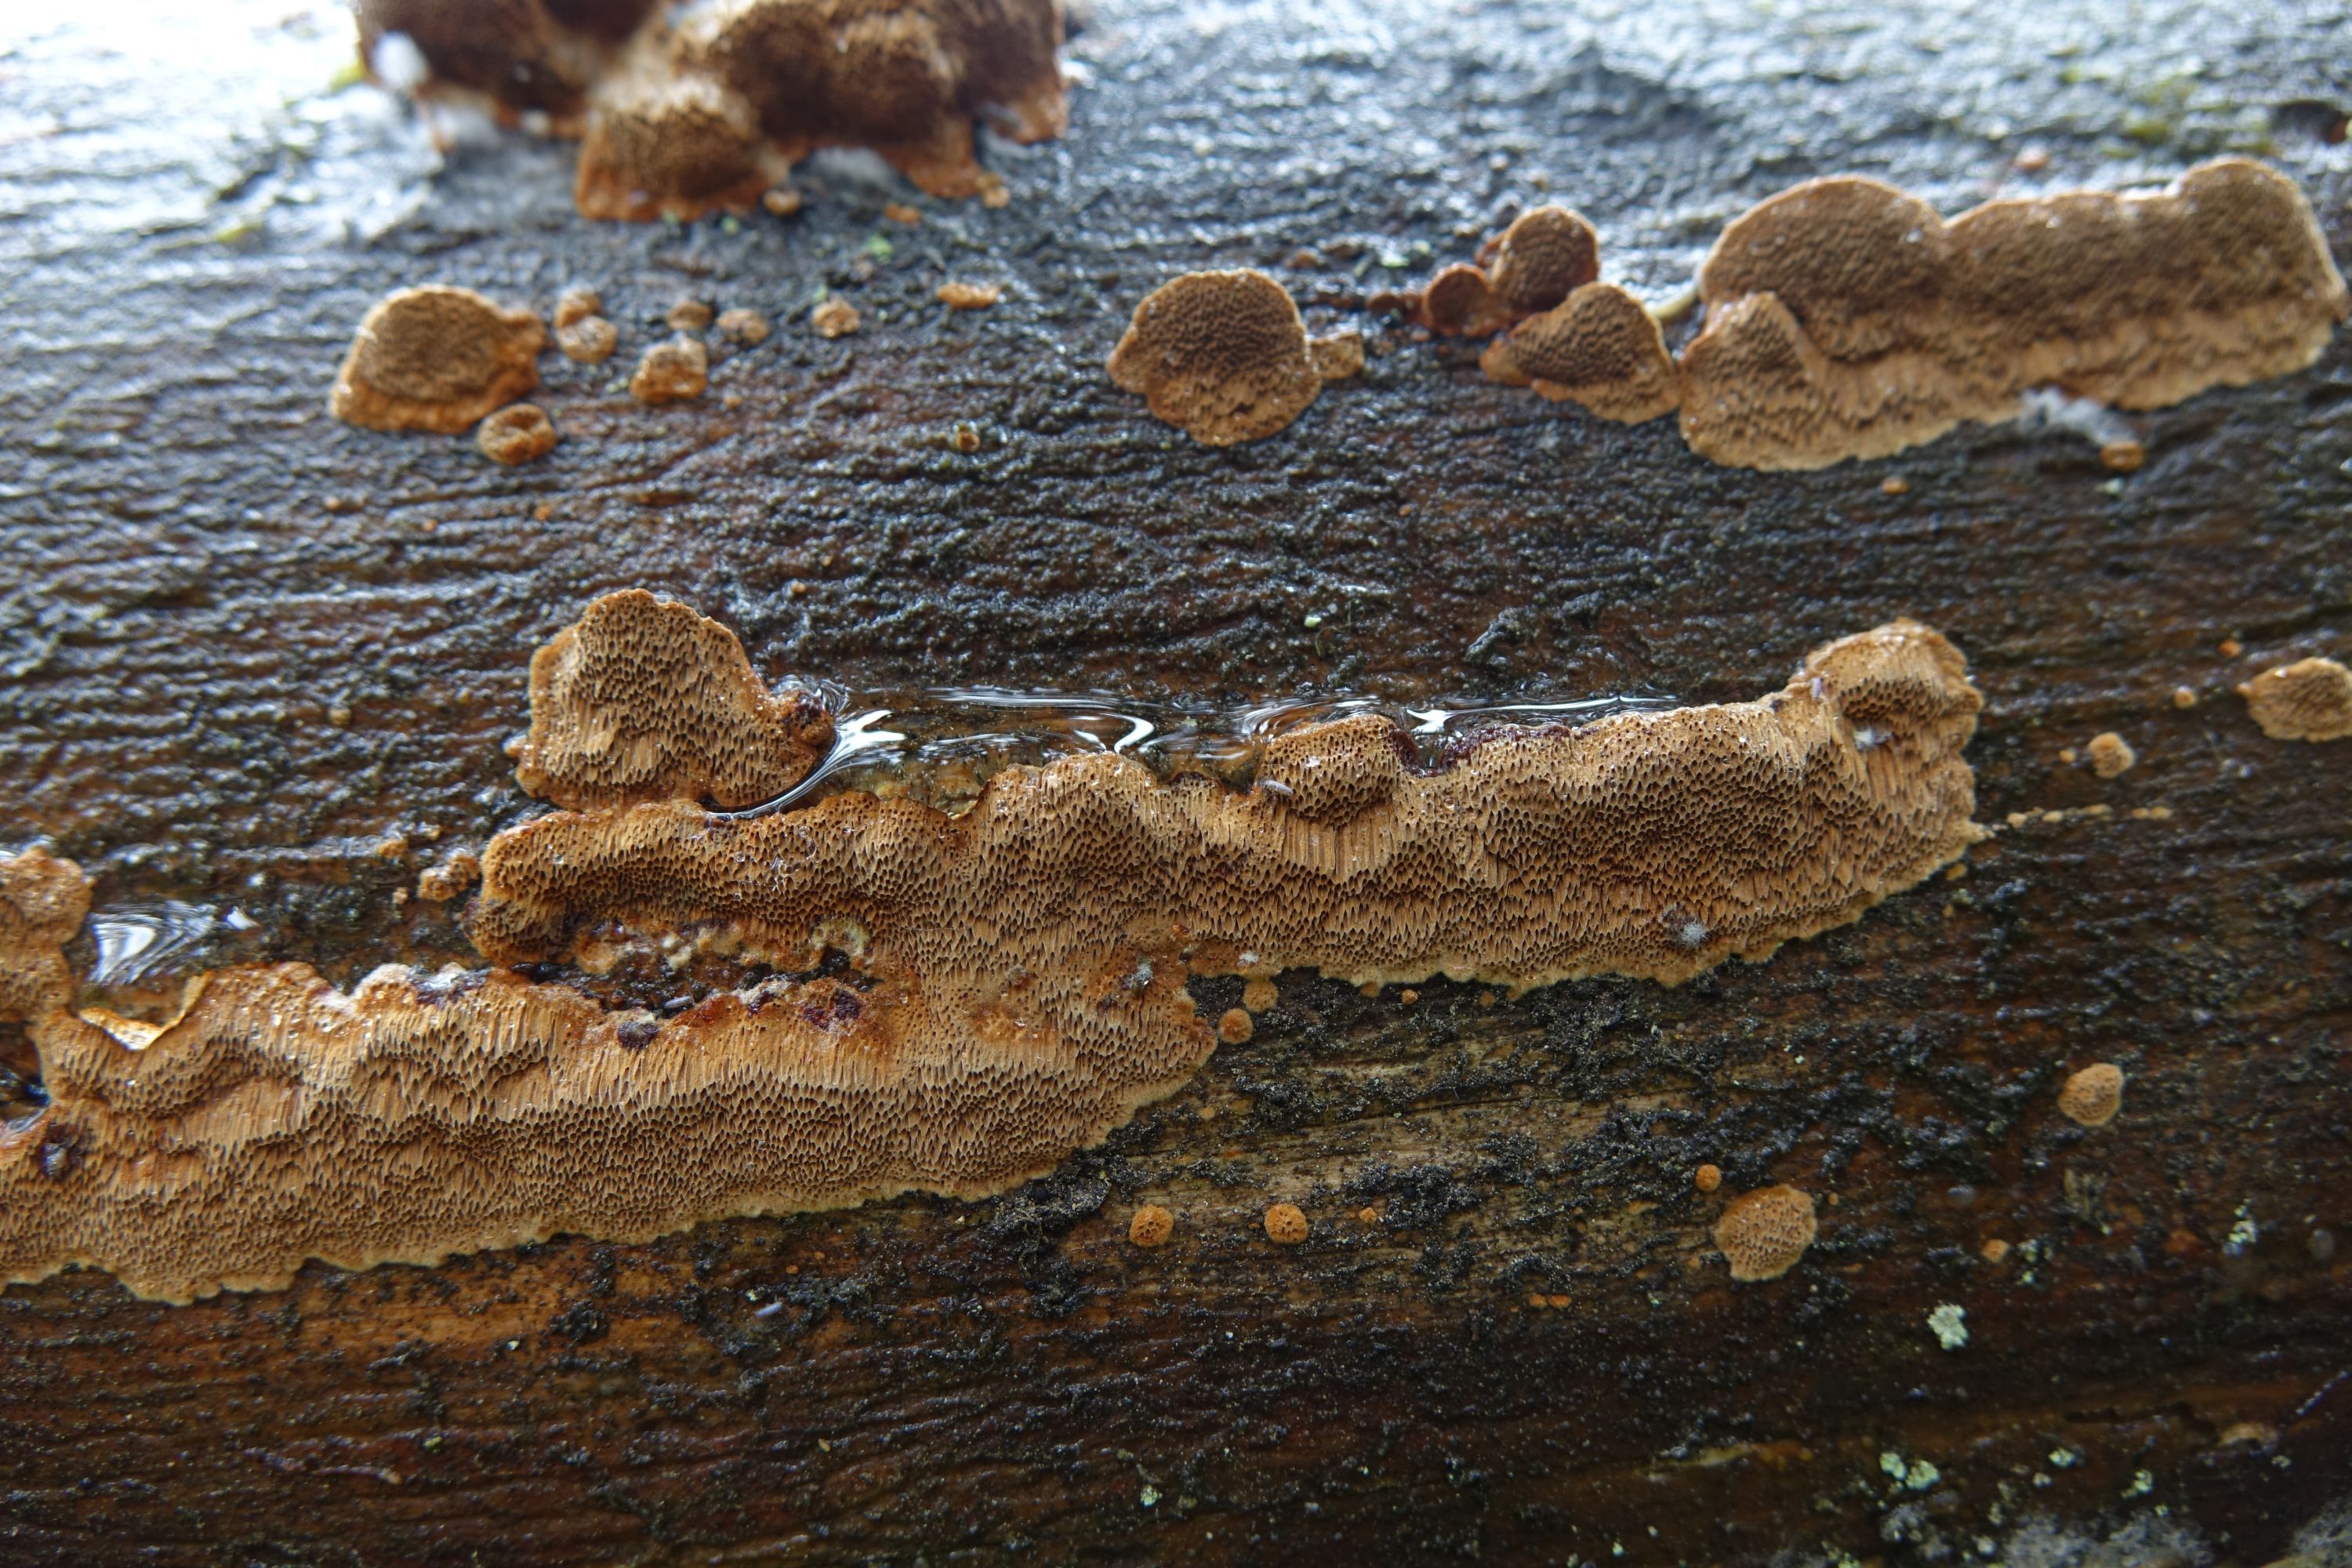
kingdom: Fungi
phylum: Basidiomycota
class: Agaricomycetes
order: Hymenochaetales
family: Hymenochaetaceae
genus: Phellinus
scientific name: Phellinus viticola
